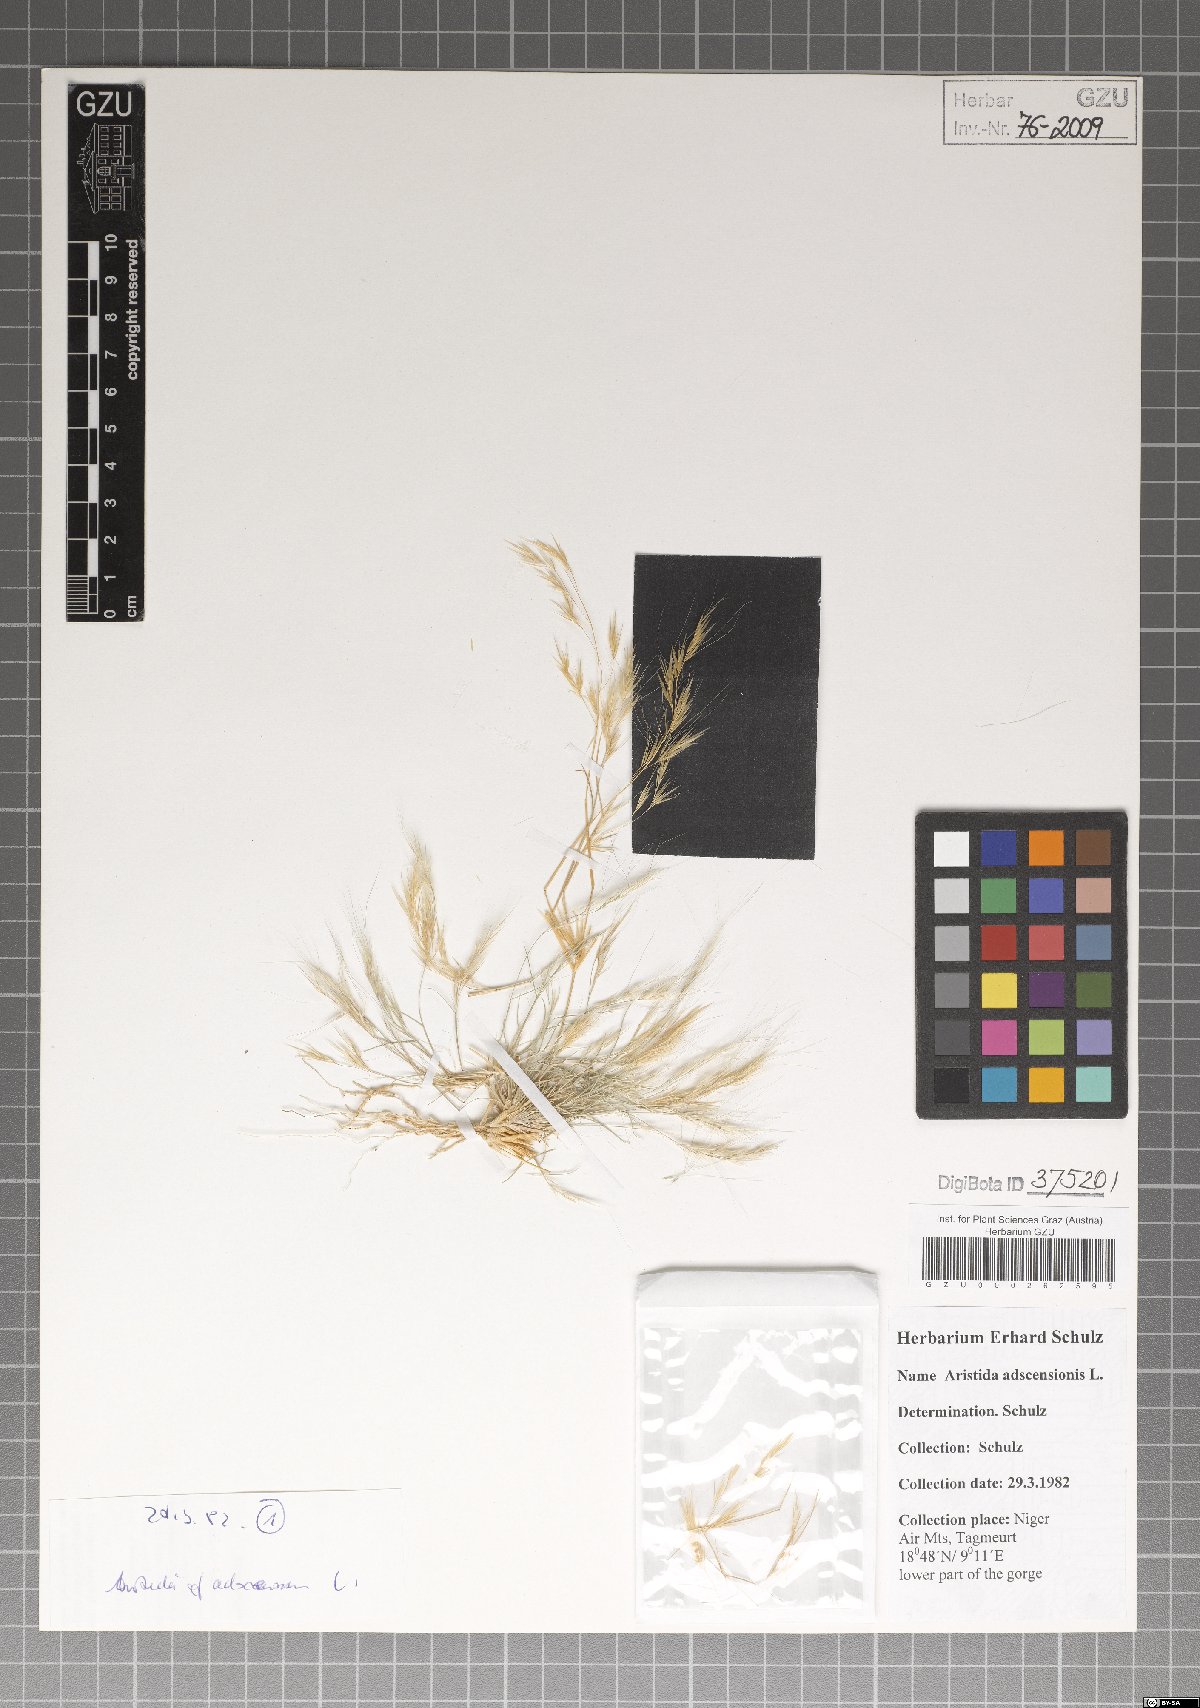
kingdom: Plantae
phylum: Tracheophyta
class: Liliopsida
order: Poales
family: Poaceae
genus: Aristida
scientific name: Aristida adscensionis
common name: Sixweeks threeawn
